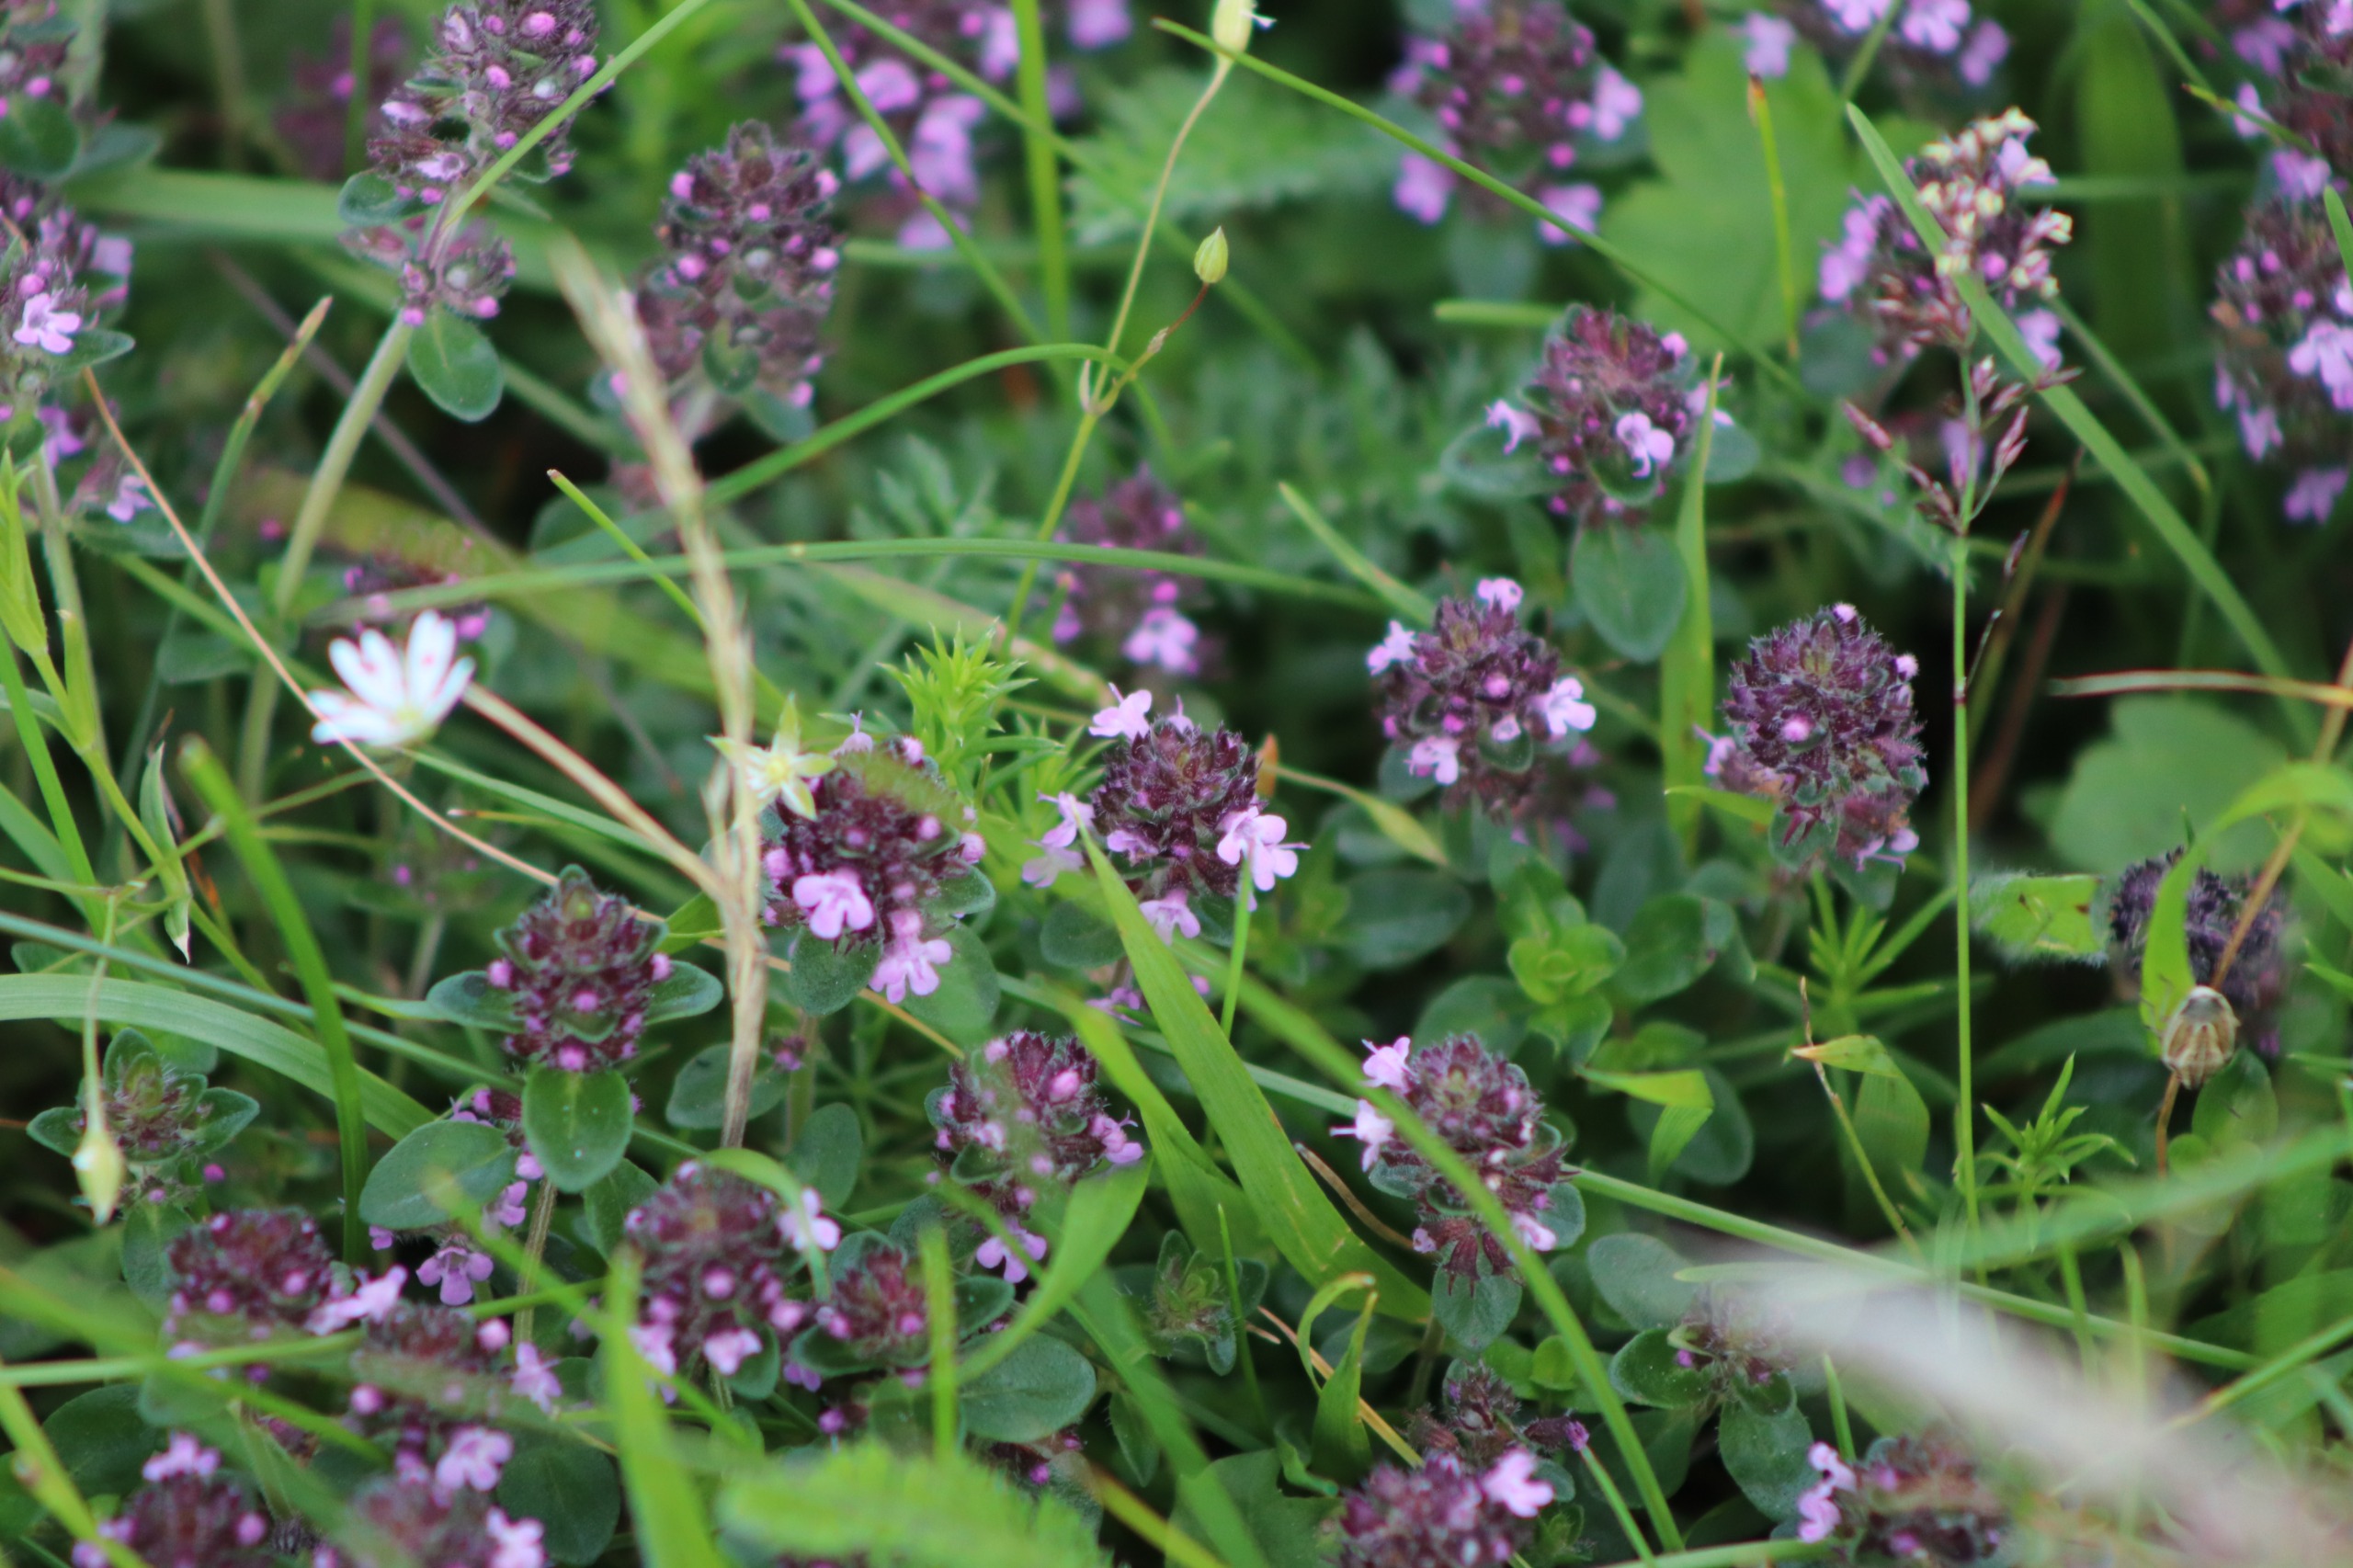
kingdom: Plantae
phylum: Tracheophyta
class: Magnoliopsida
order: Lamiales
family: Lamiaceae
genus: Thymus
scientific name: Thymus pulegioides
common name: Bredbladet timian
